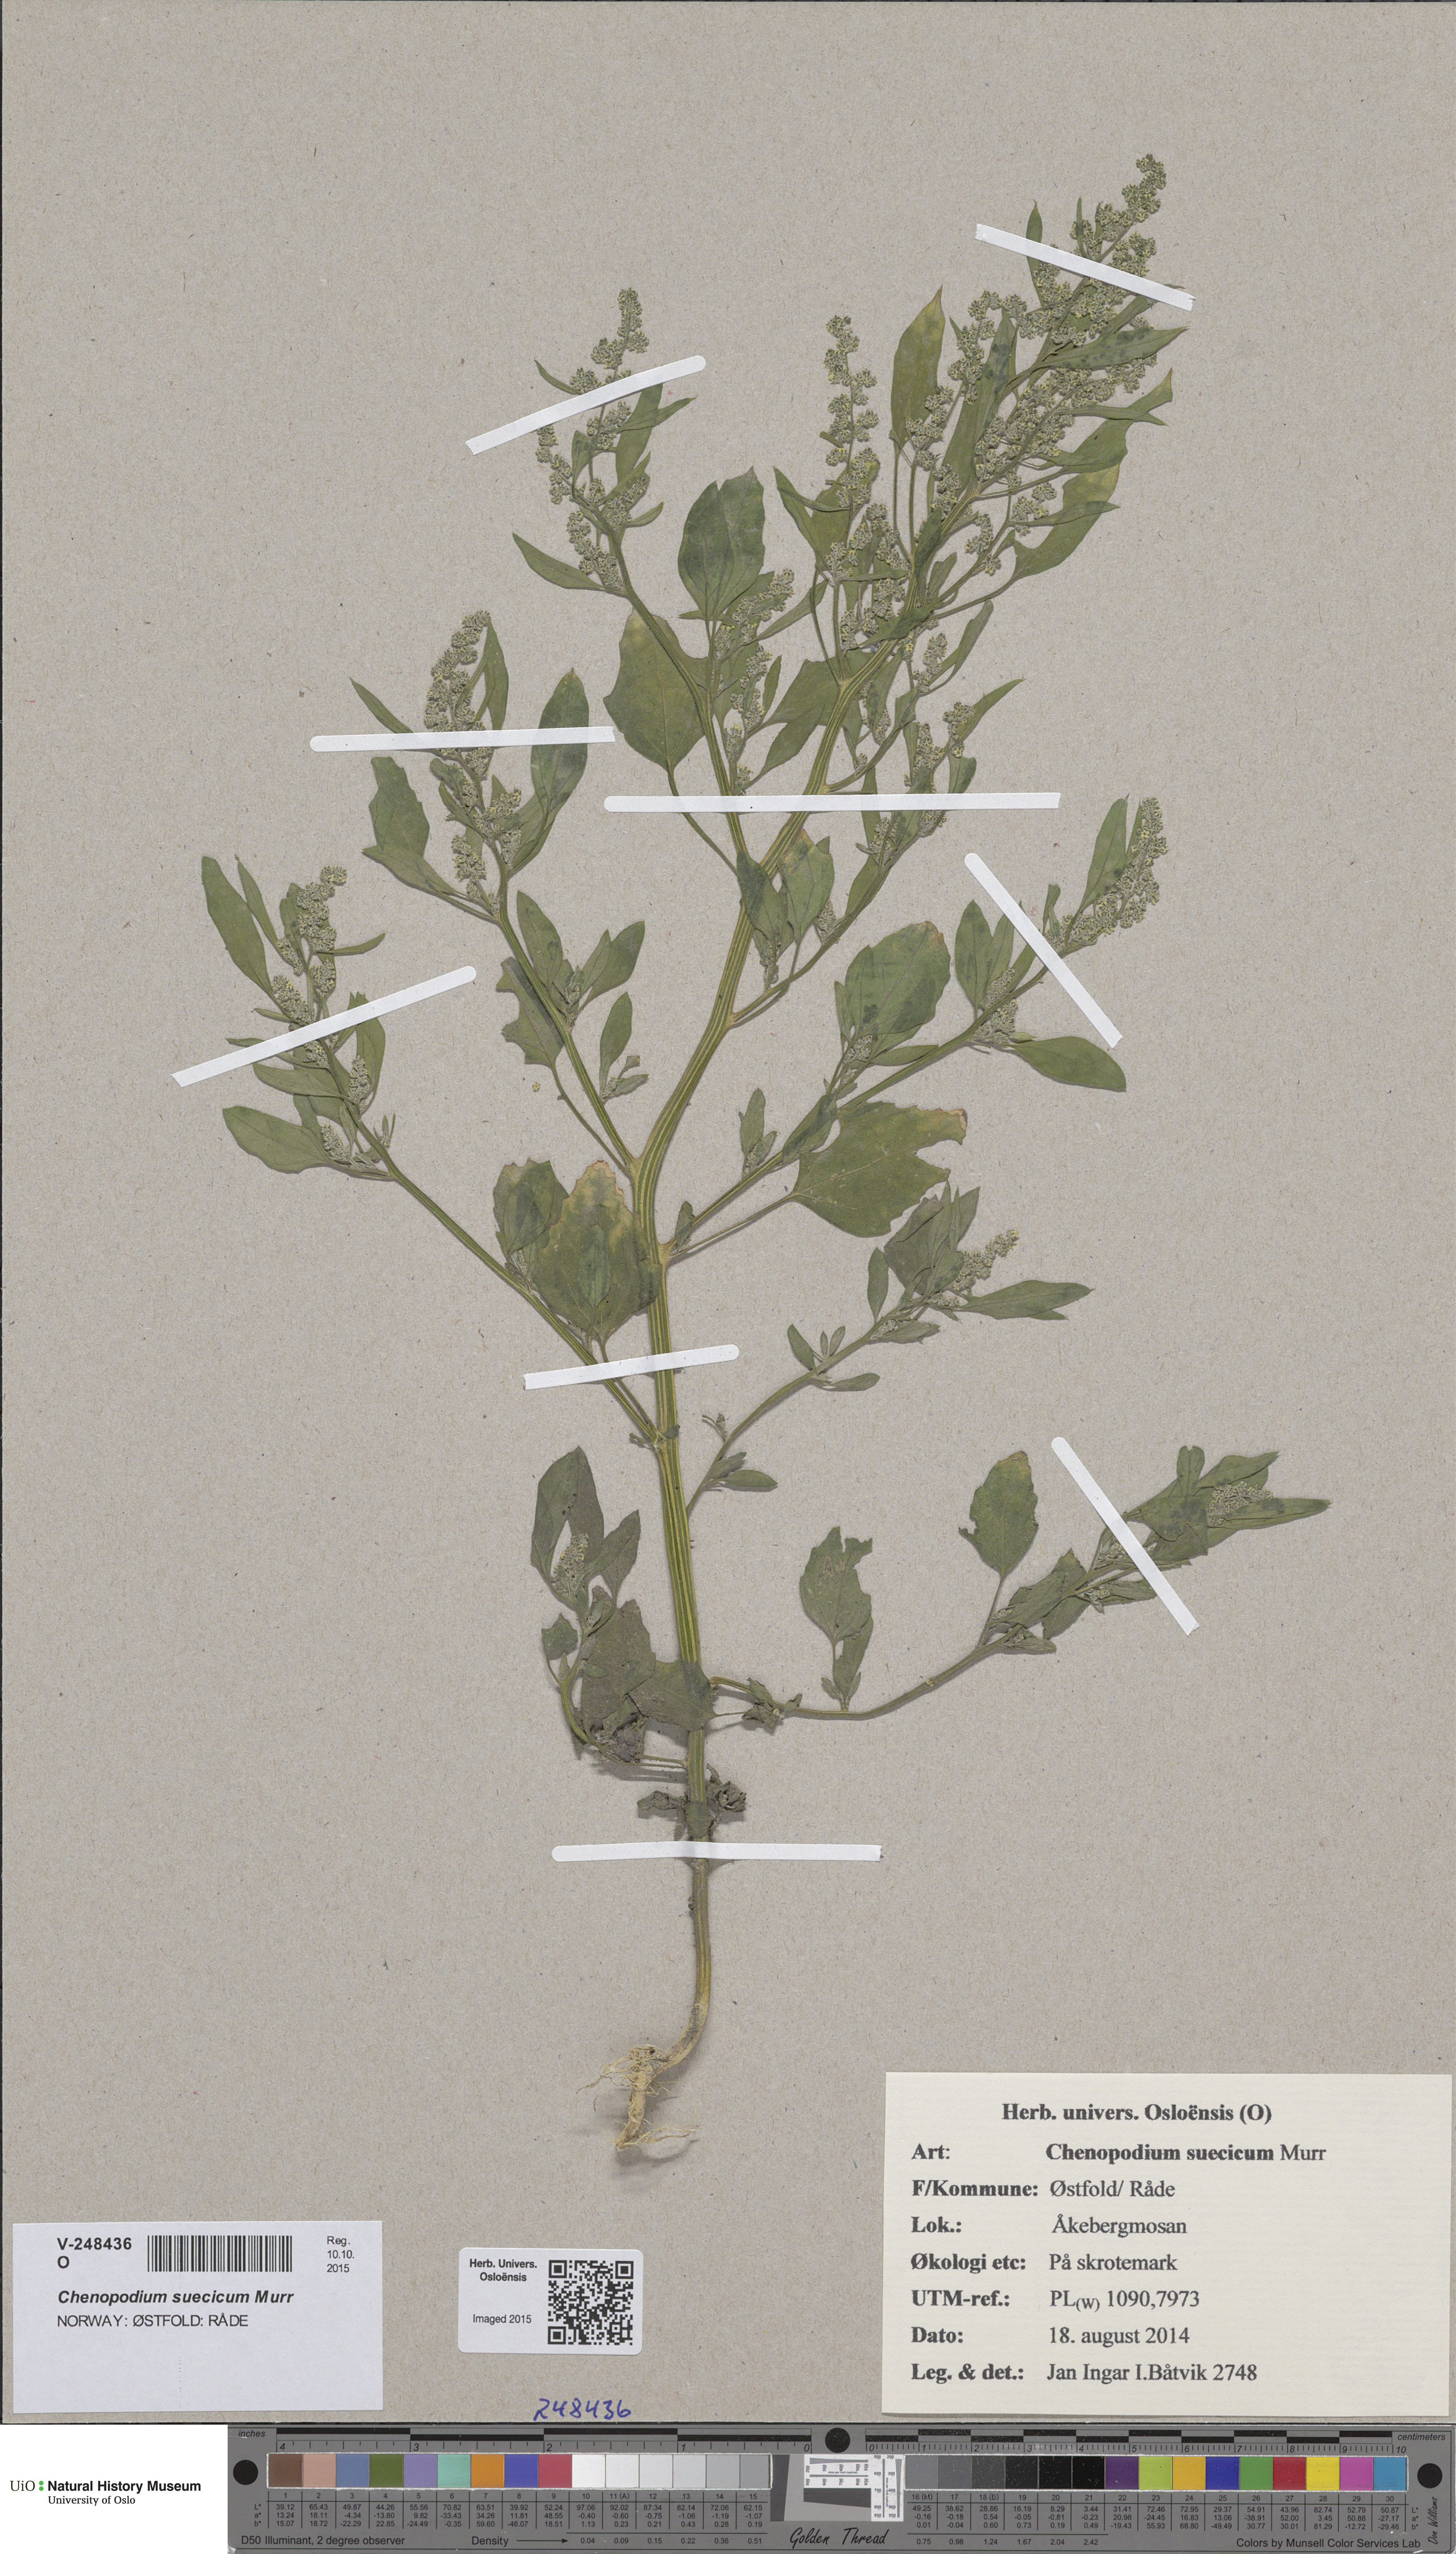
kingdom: Plantae
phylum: Tracheophyta
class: Magnoliopsida
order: Caryophyllales
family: Amaranthaceae
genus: Chenopodium
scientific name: Chenopodium album
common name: Fat-hen
